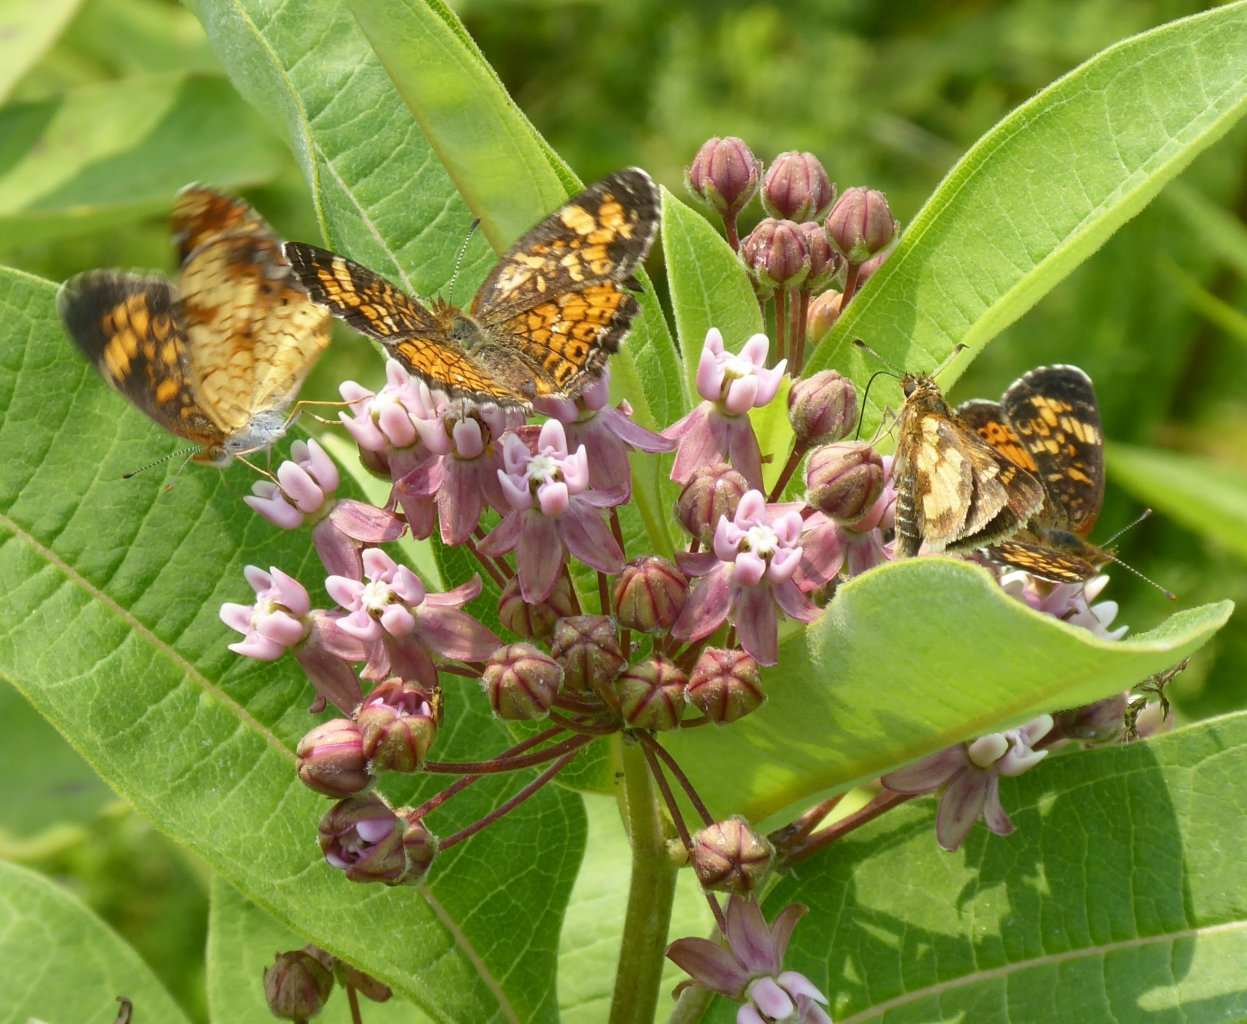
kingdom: Animalia
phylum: Arthropoda
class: Insecta
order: Lepidoptera
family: Nymphalidae
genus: Phyciodes
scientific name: Phyciodes tharos
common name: Pearl Crescent
